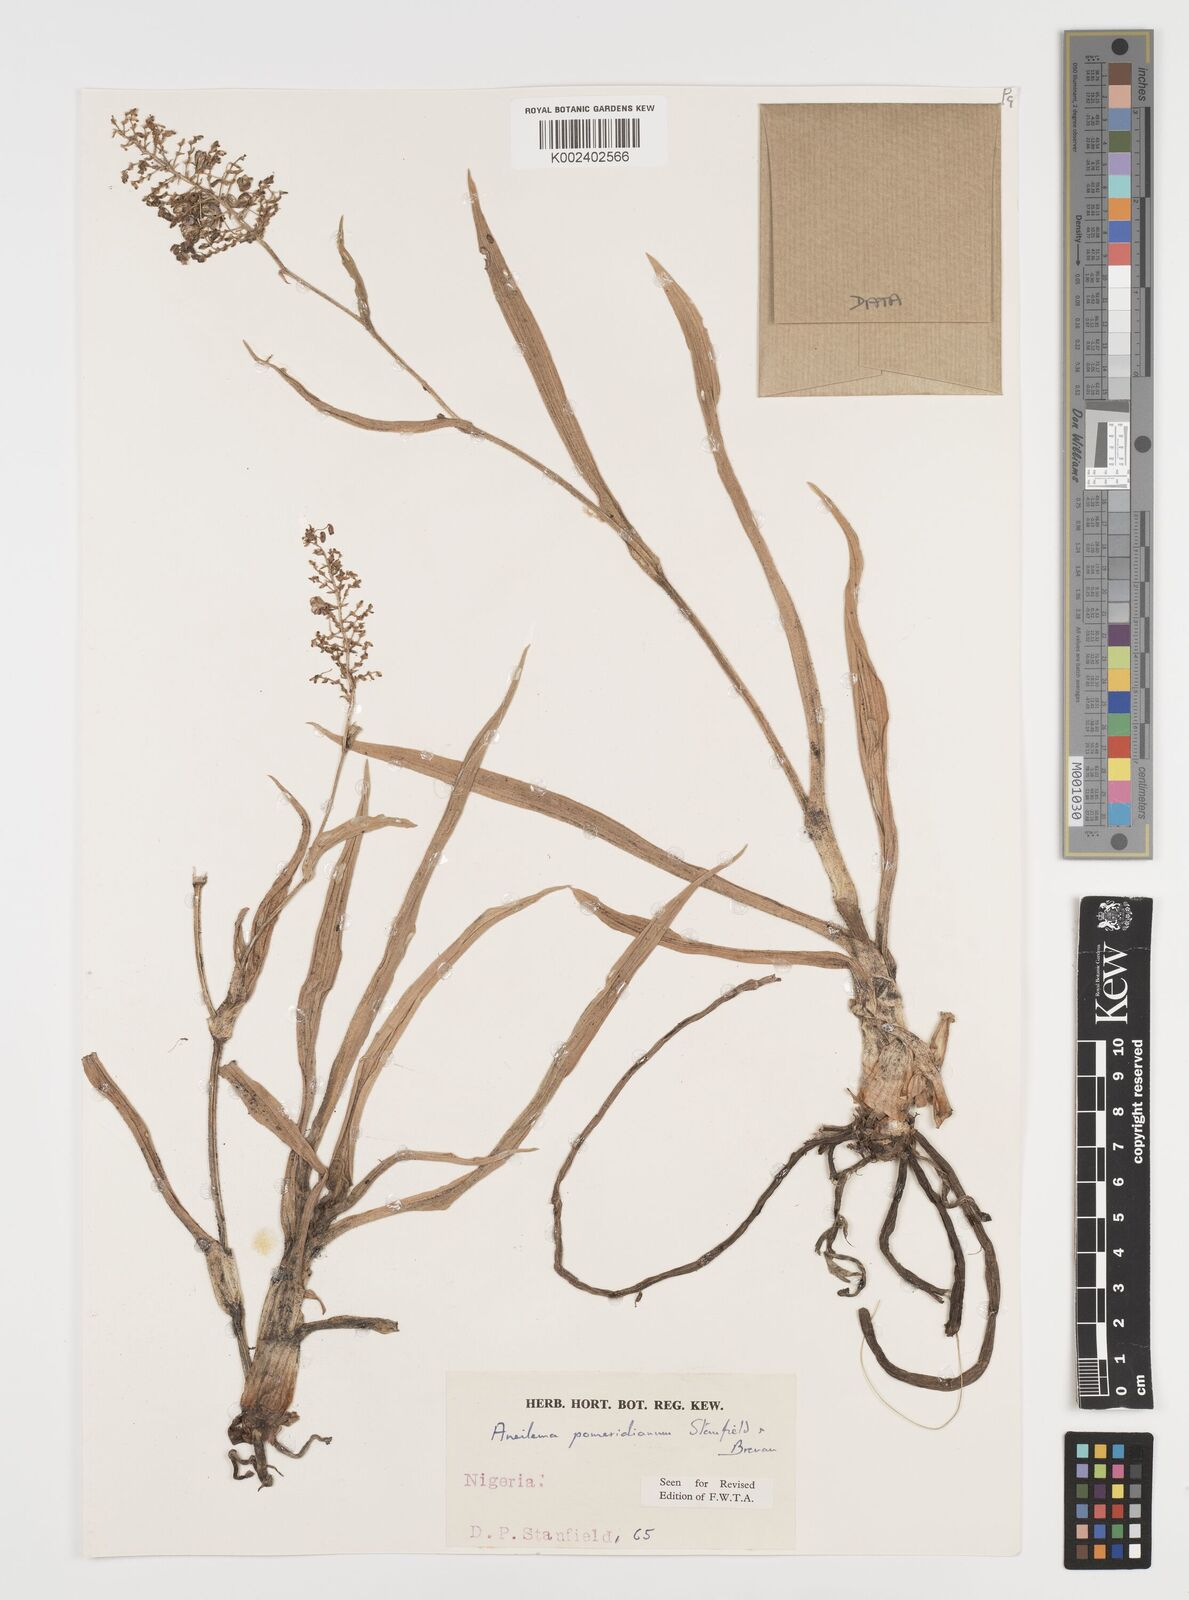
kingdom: Plantae
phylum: Tracheophyta
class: Liliopsida
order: Commelinales
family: Commelinaceae
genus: Aneilema
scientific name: Aneilema pomeridianum
